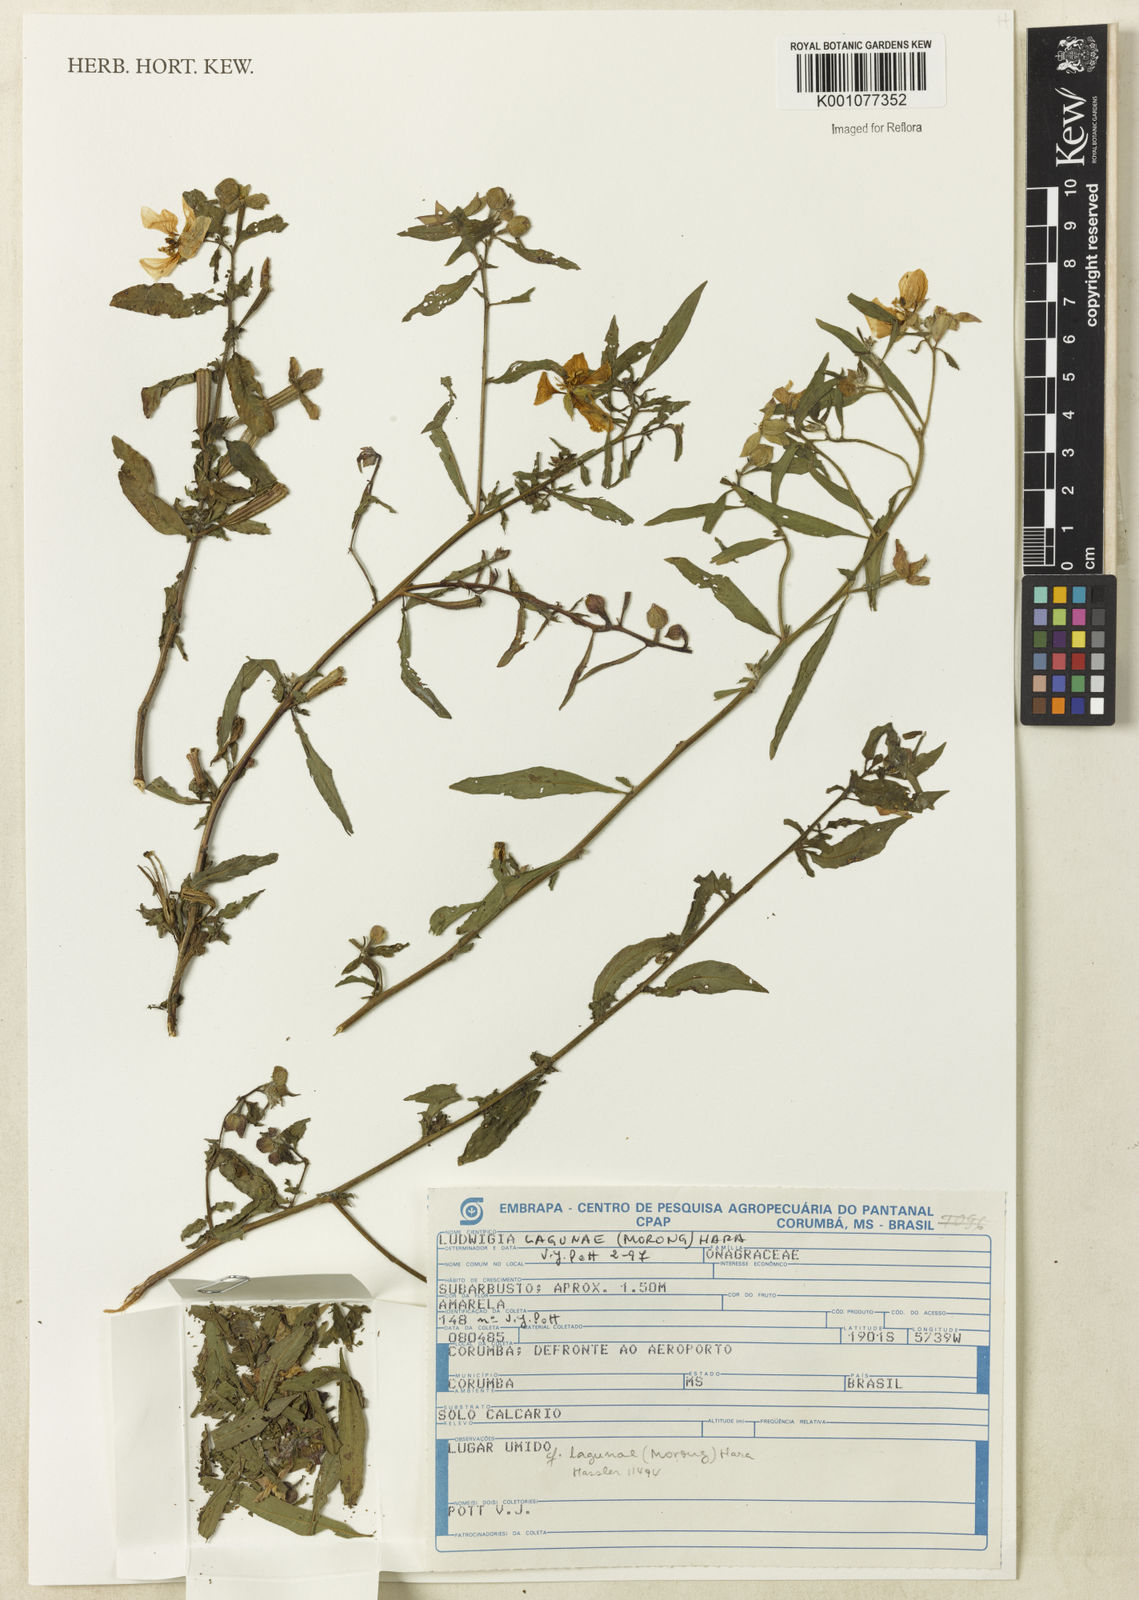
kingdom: Plantae
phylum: Tracheophyta
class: Magnoliopsida
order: Myrtales
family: Onagraceae
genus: Ludwigia
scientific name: Ludwigia lagunae
